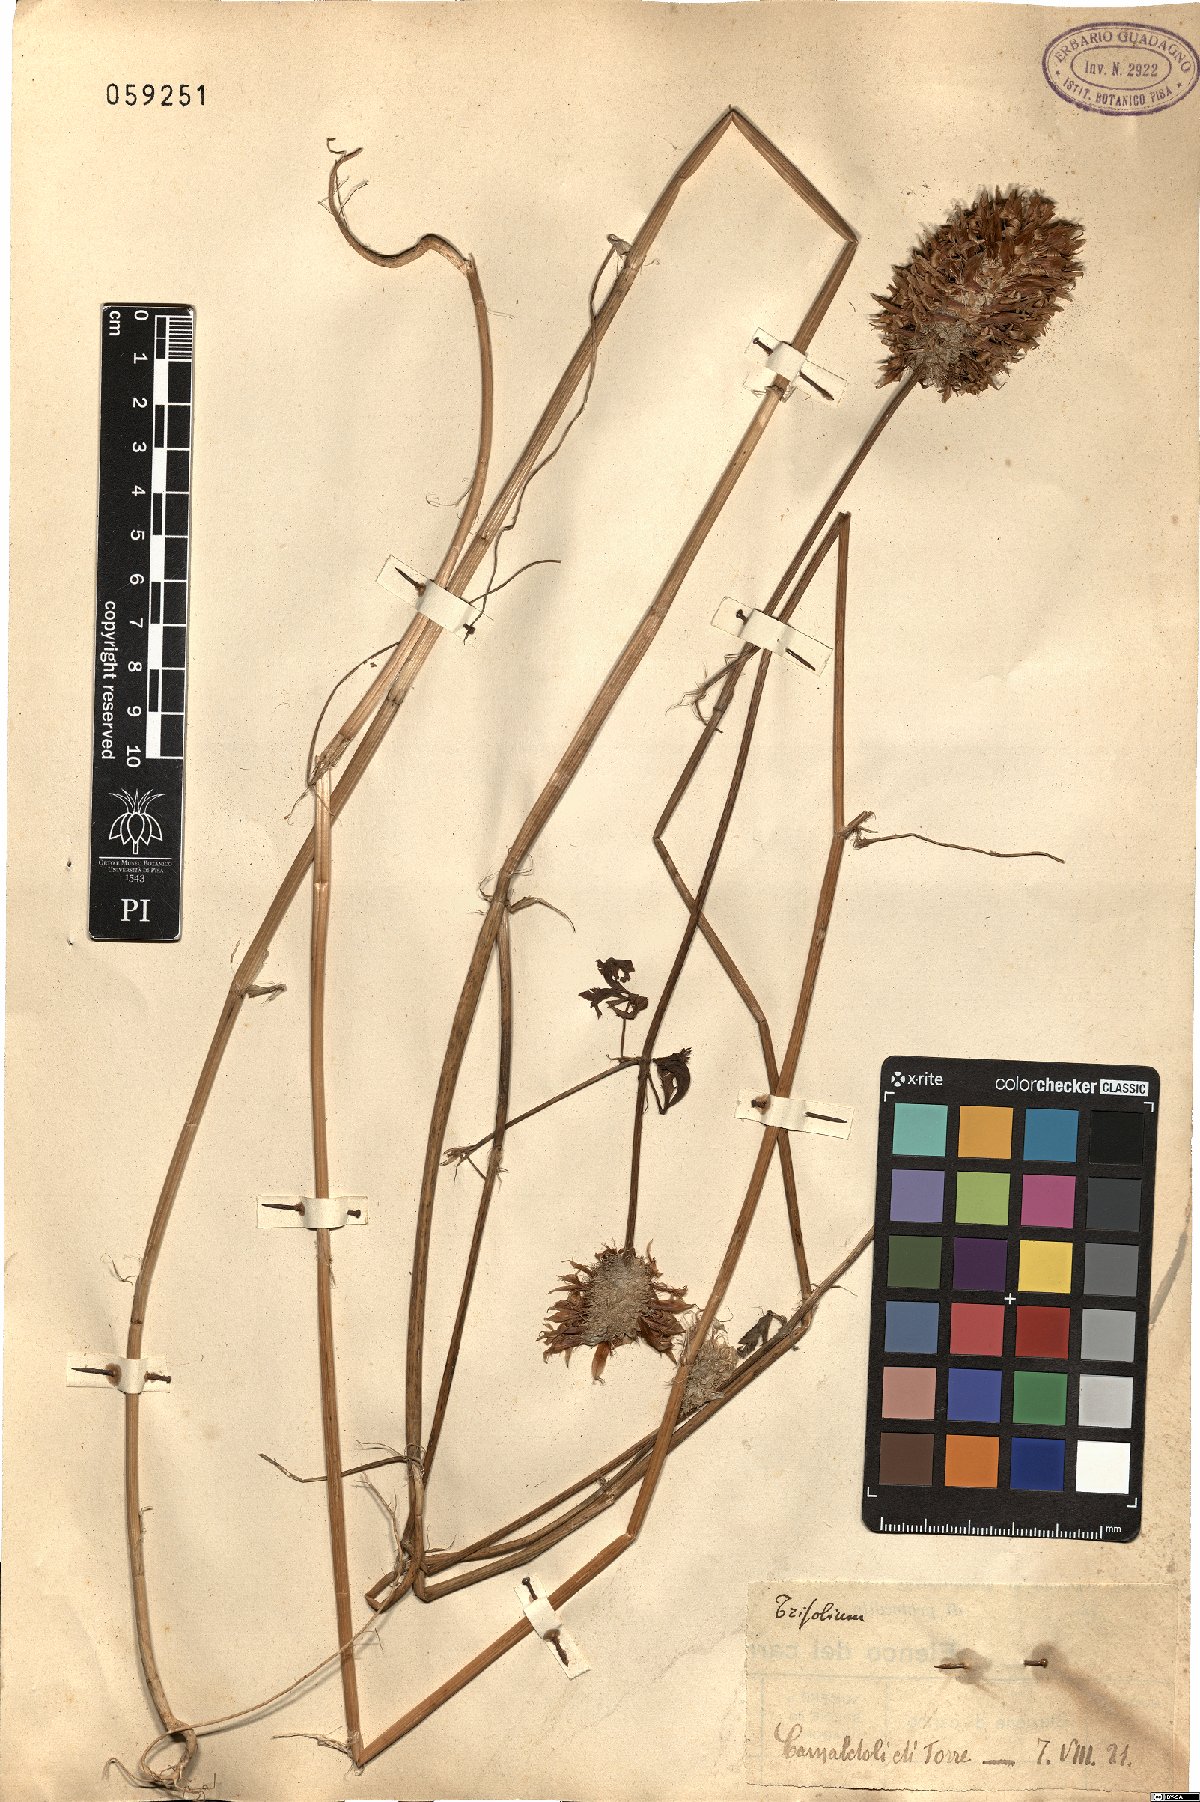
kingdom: Plantae
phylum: Tracheophyta
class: Magnoliopsida
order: Fabales
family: Fabaceae
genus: Trifolium
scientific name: Trifolium
